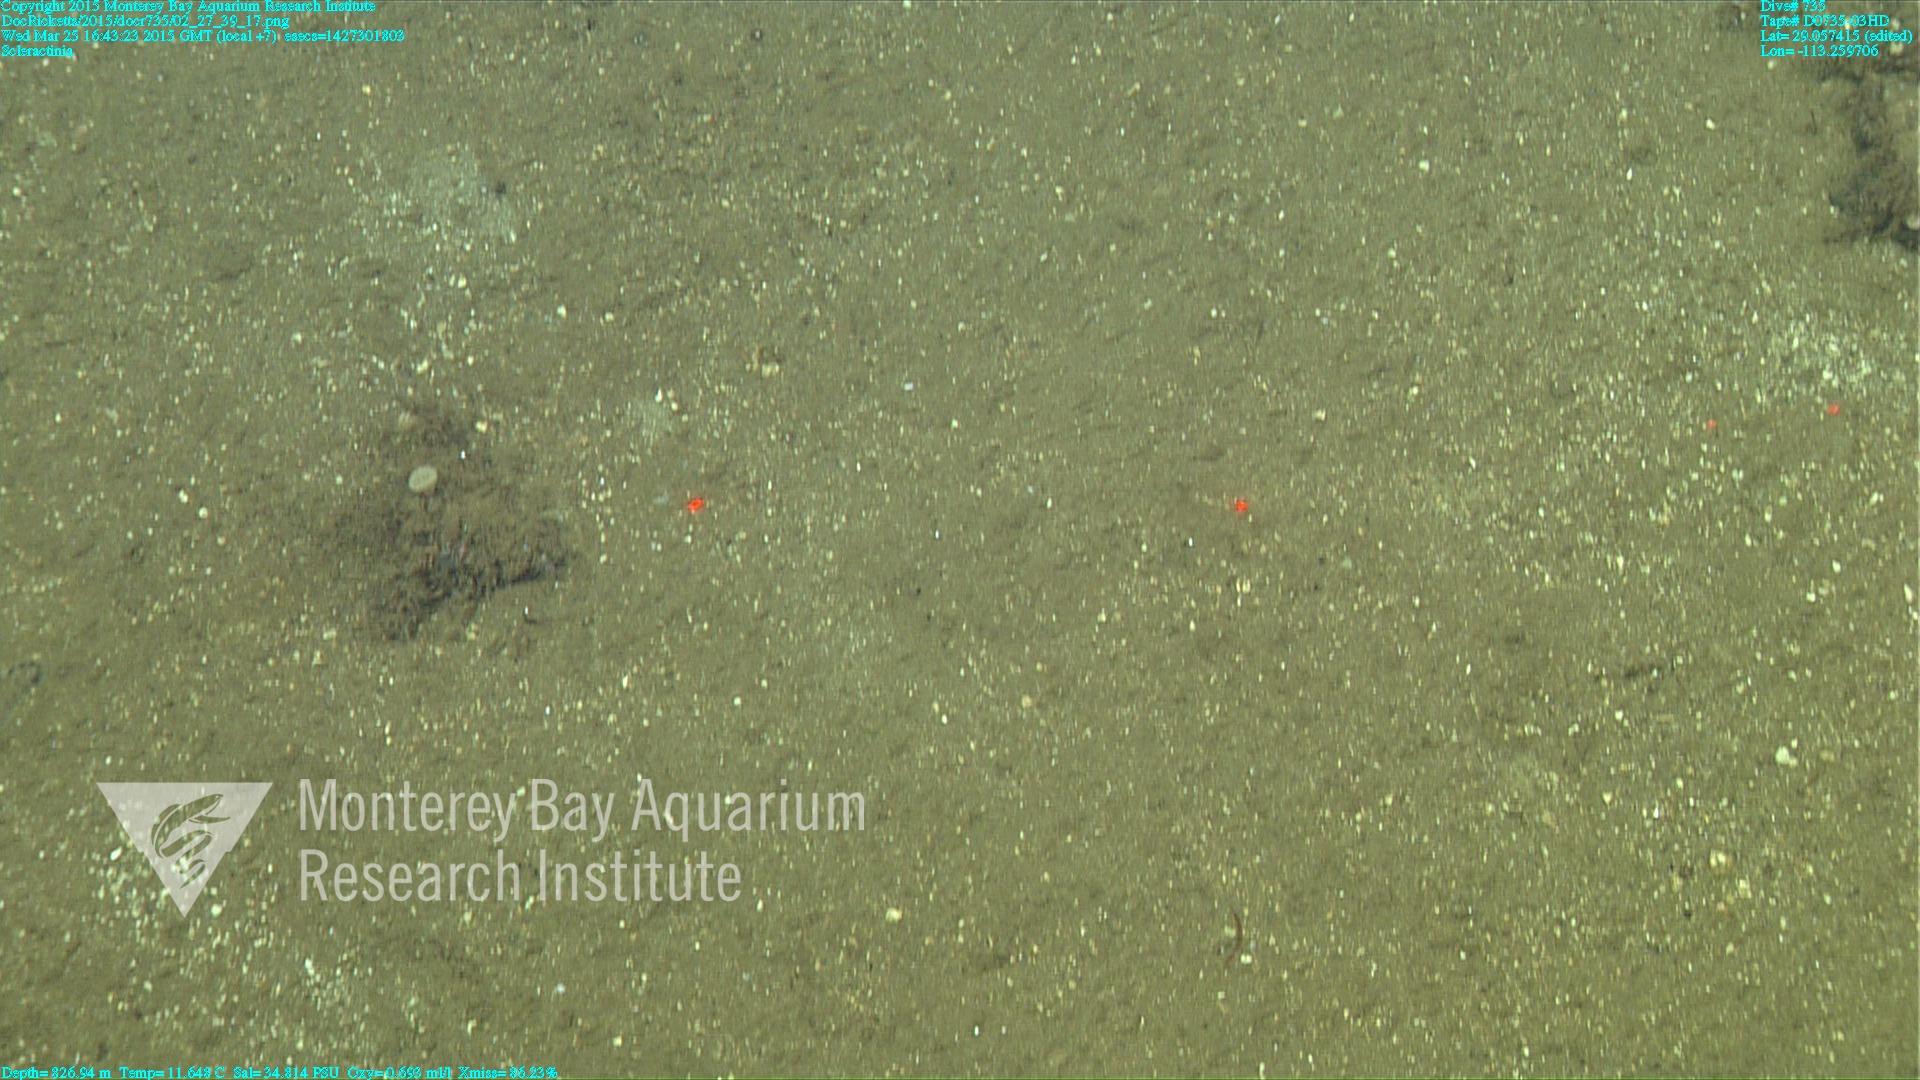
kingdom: Animalia
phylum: Cnidaria
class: Anthozoa
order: Scleractinia
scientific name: Scleractinia
